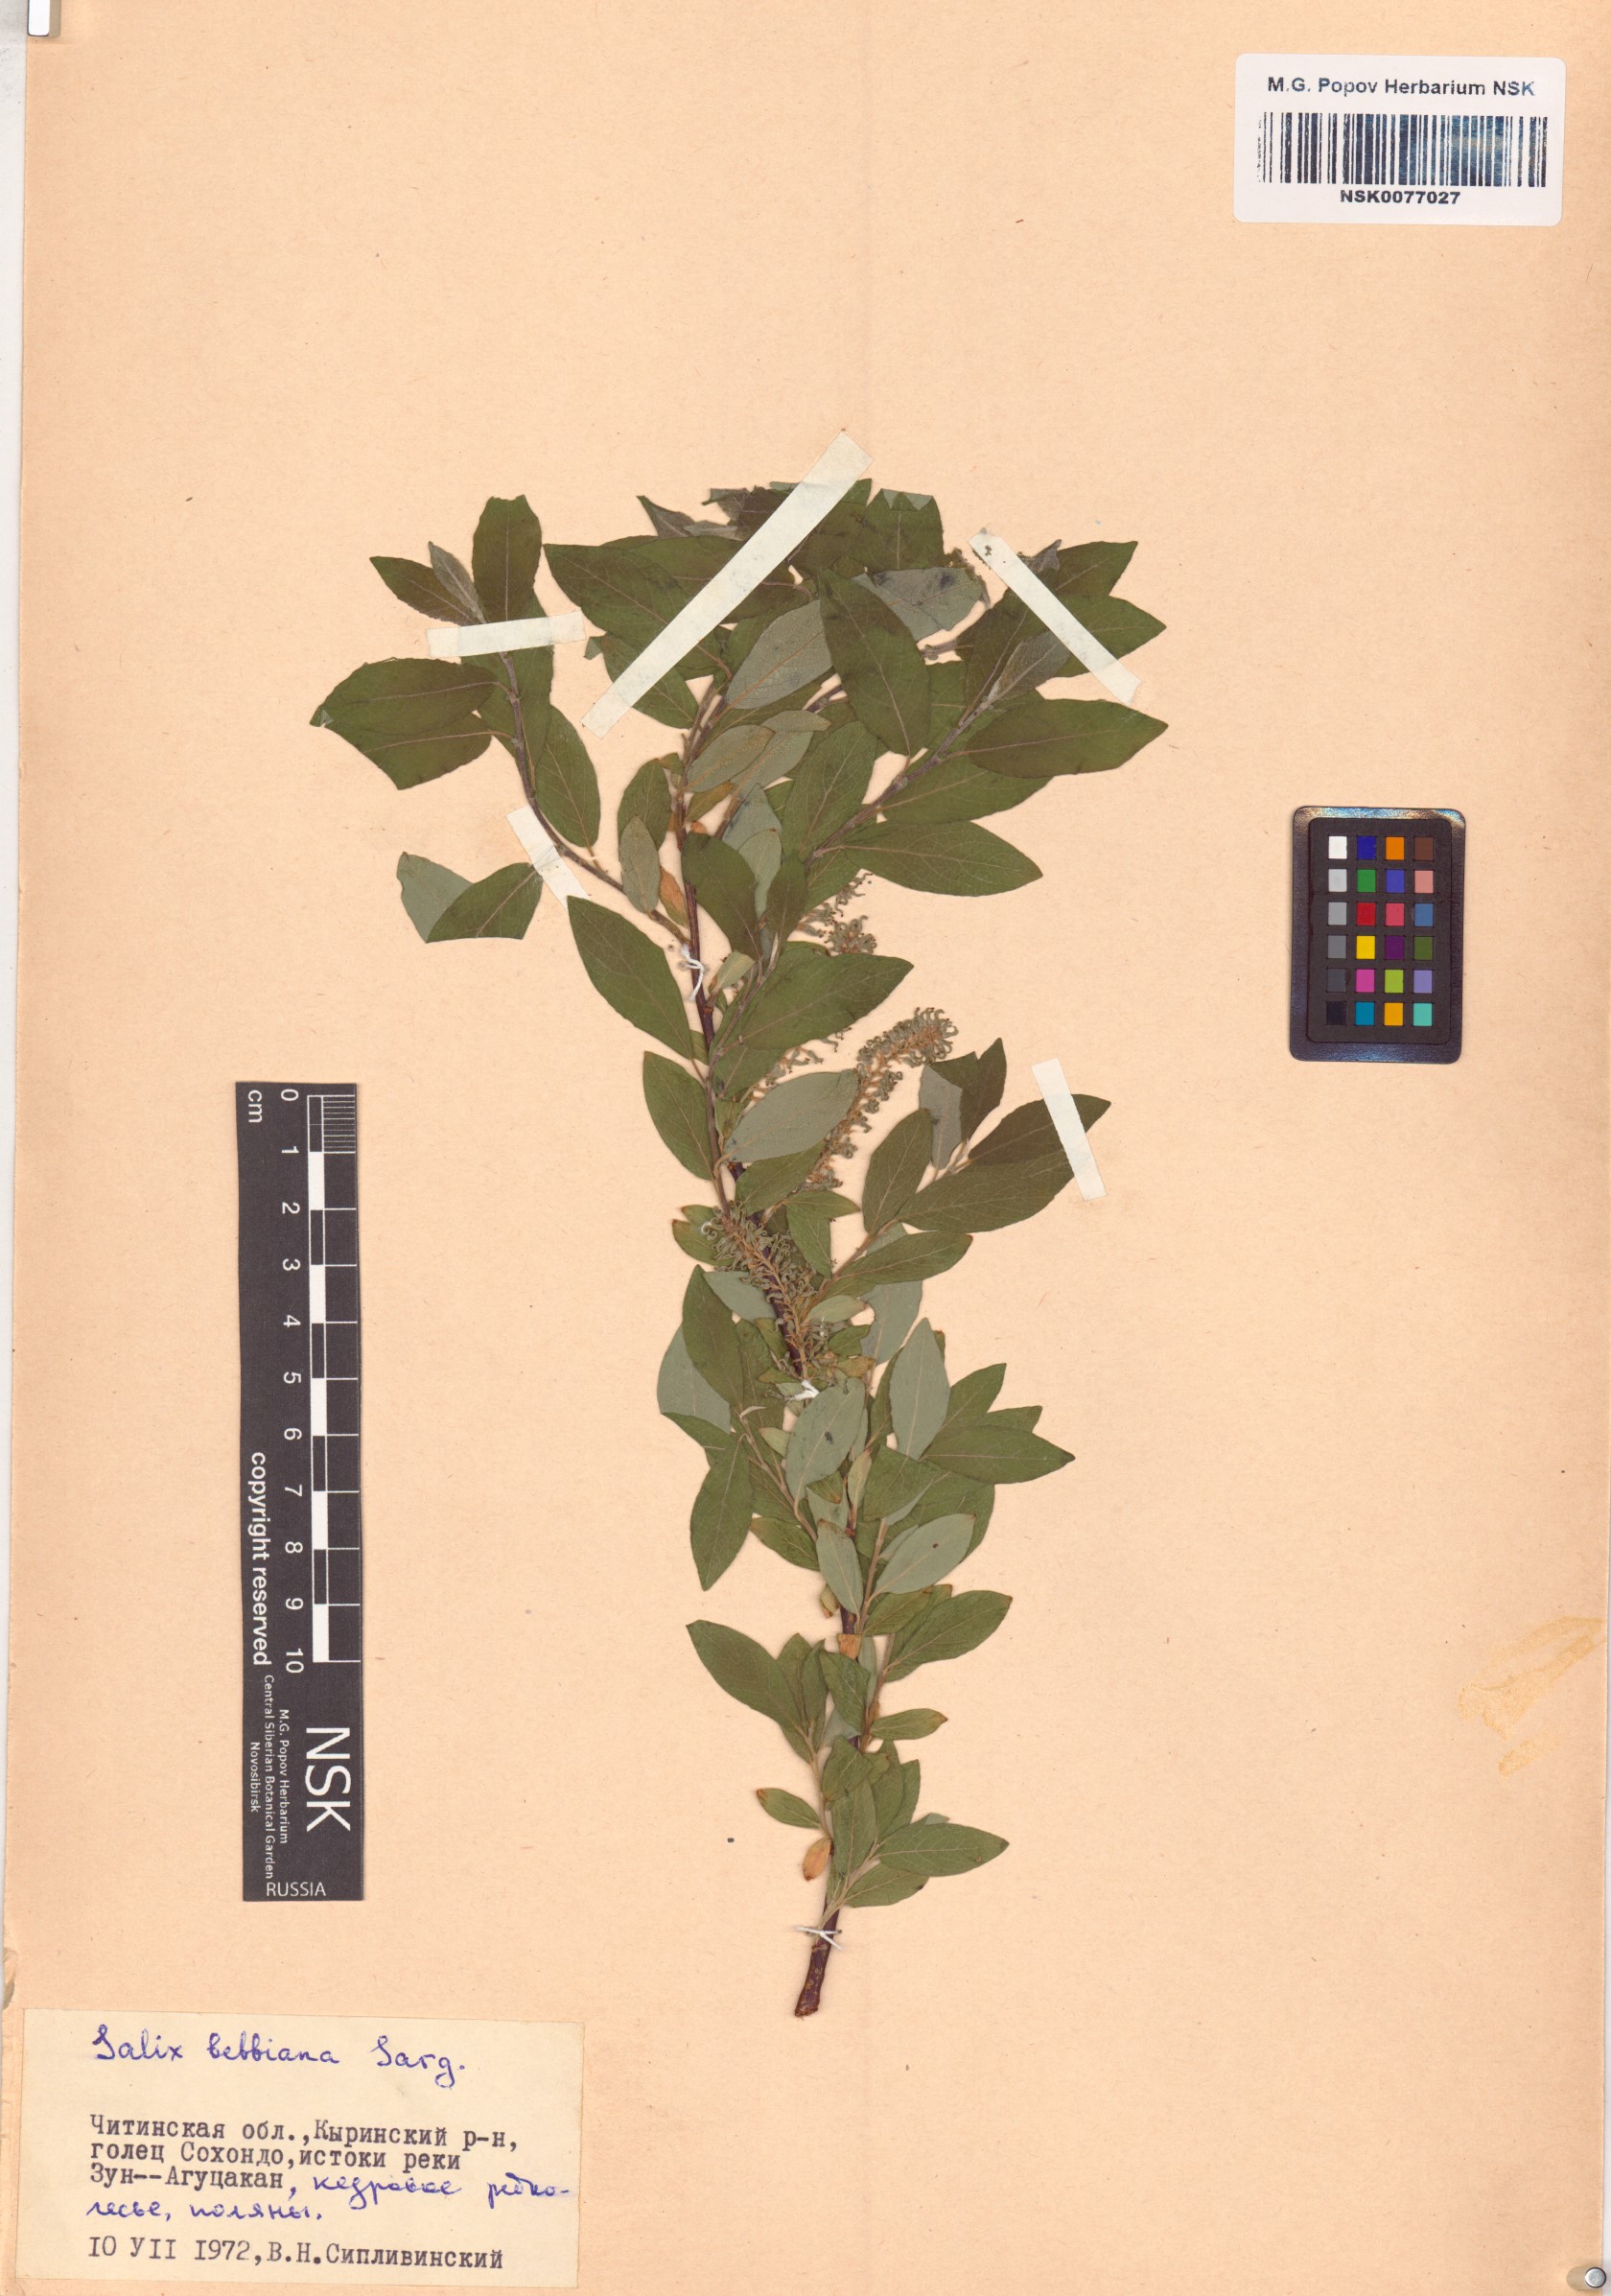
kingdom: Plantae
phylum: Tracheophyta
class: Magnoliopsida
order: Malpighiales
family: Salicaceae
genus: Salix
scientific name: Salix bebbiana
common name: Bebb's willow
